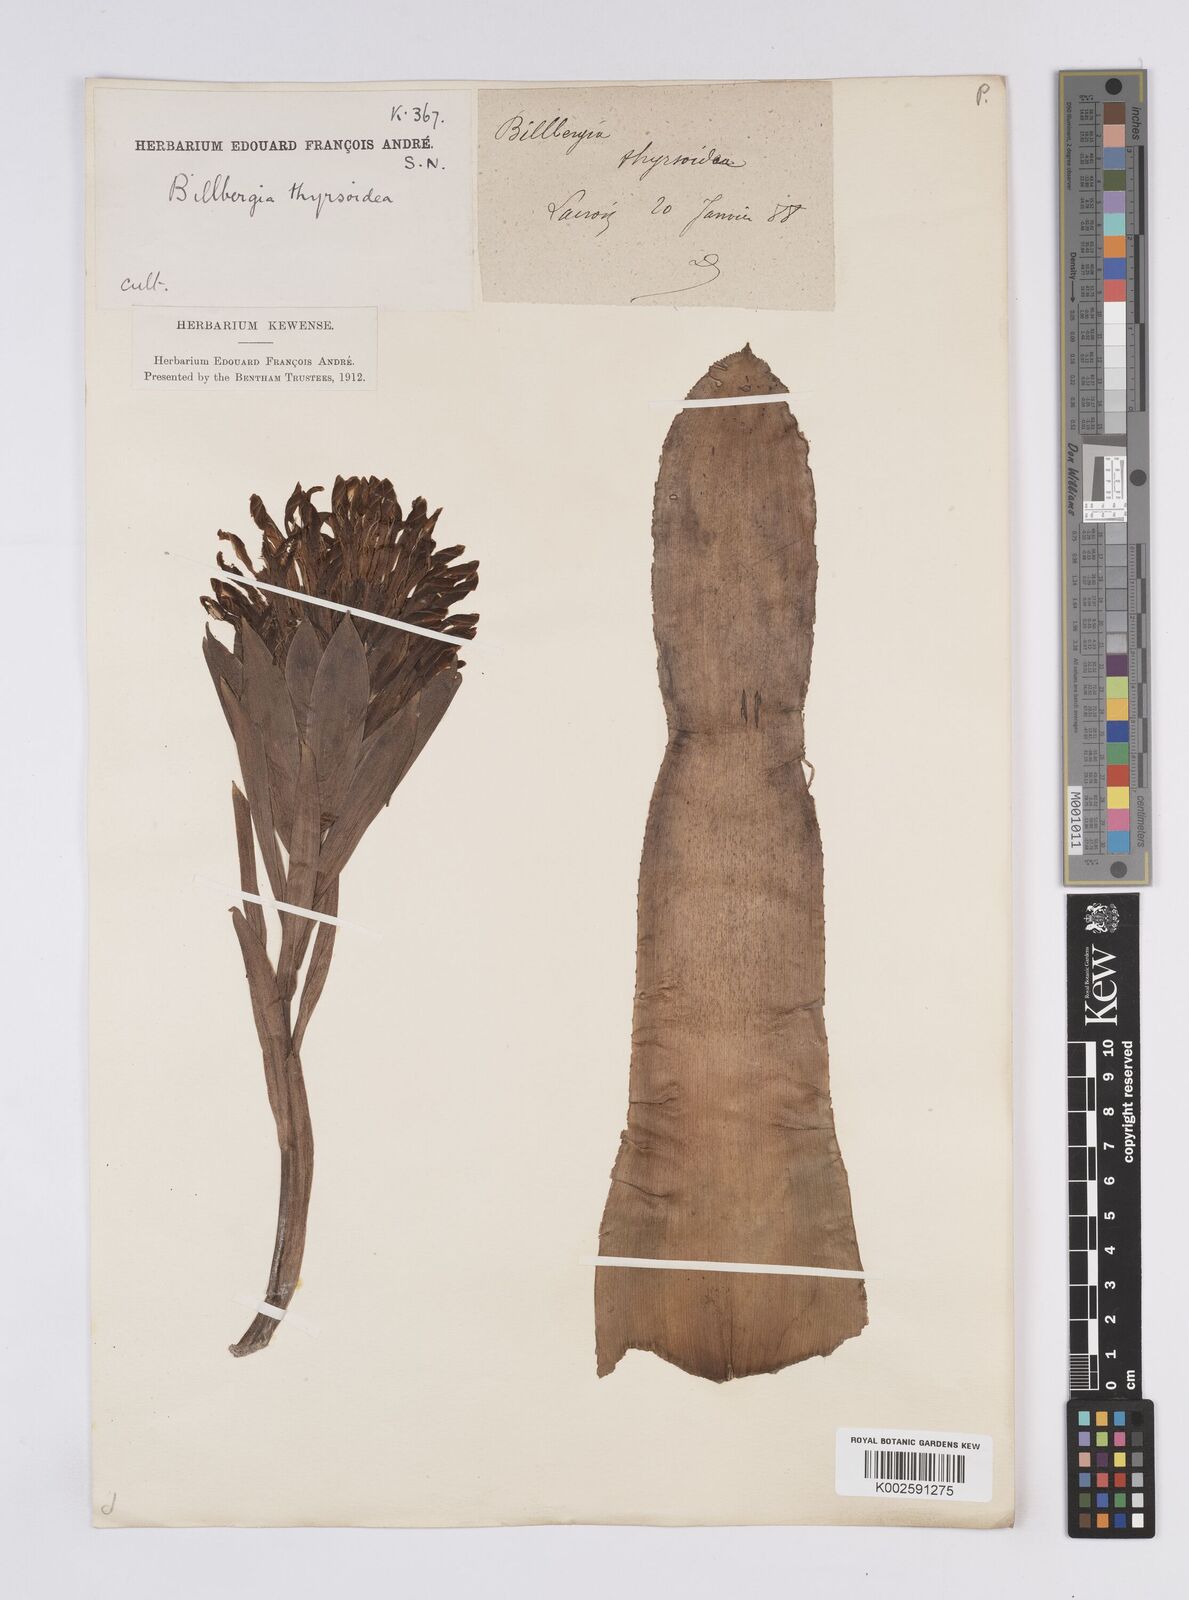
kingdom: Plantae
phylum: Tracheophyta
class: Liliopsida
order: Poales
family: Bromeliaceae
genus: Billbergia
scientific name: Billbergia pyramidalis
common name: Foolproofplant
